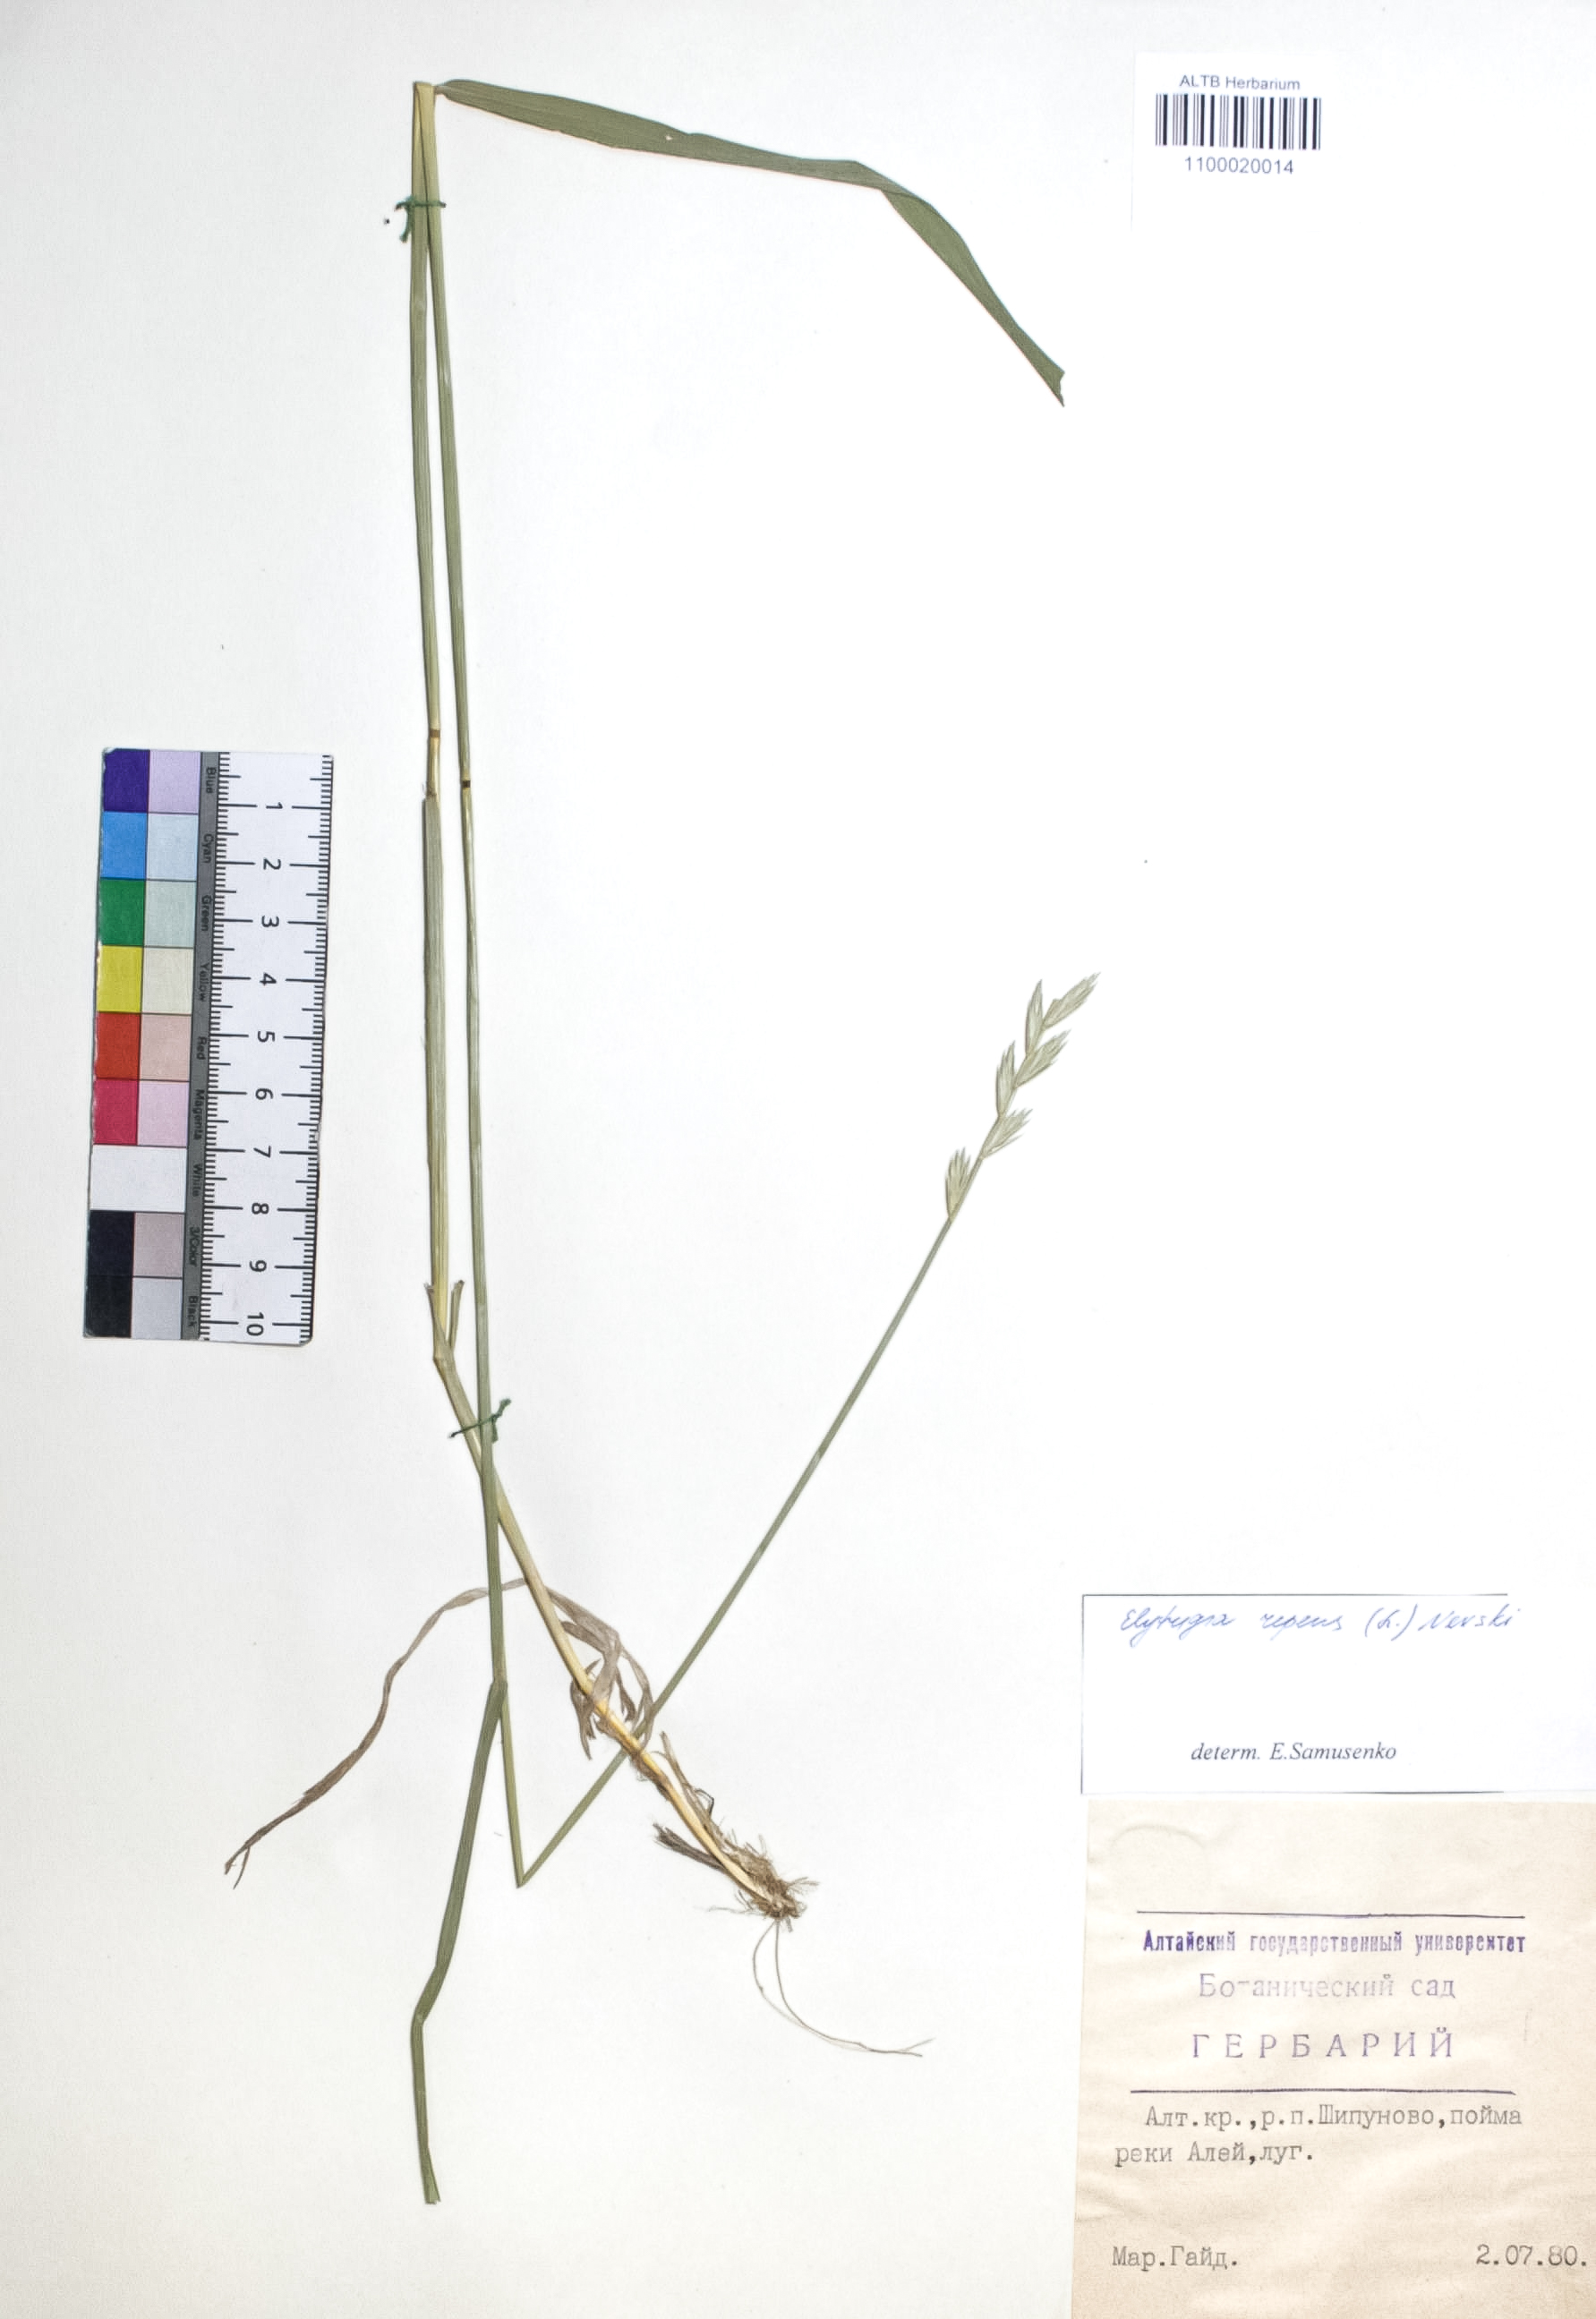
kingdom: Plantae
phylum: Tracheophyta
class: Liliopsida
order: Poales
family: Poaceae
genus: Elymus
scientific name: Elymus repens
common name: Quackgrass
